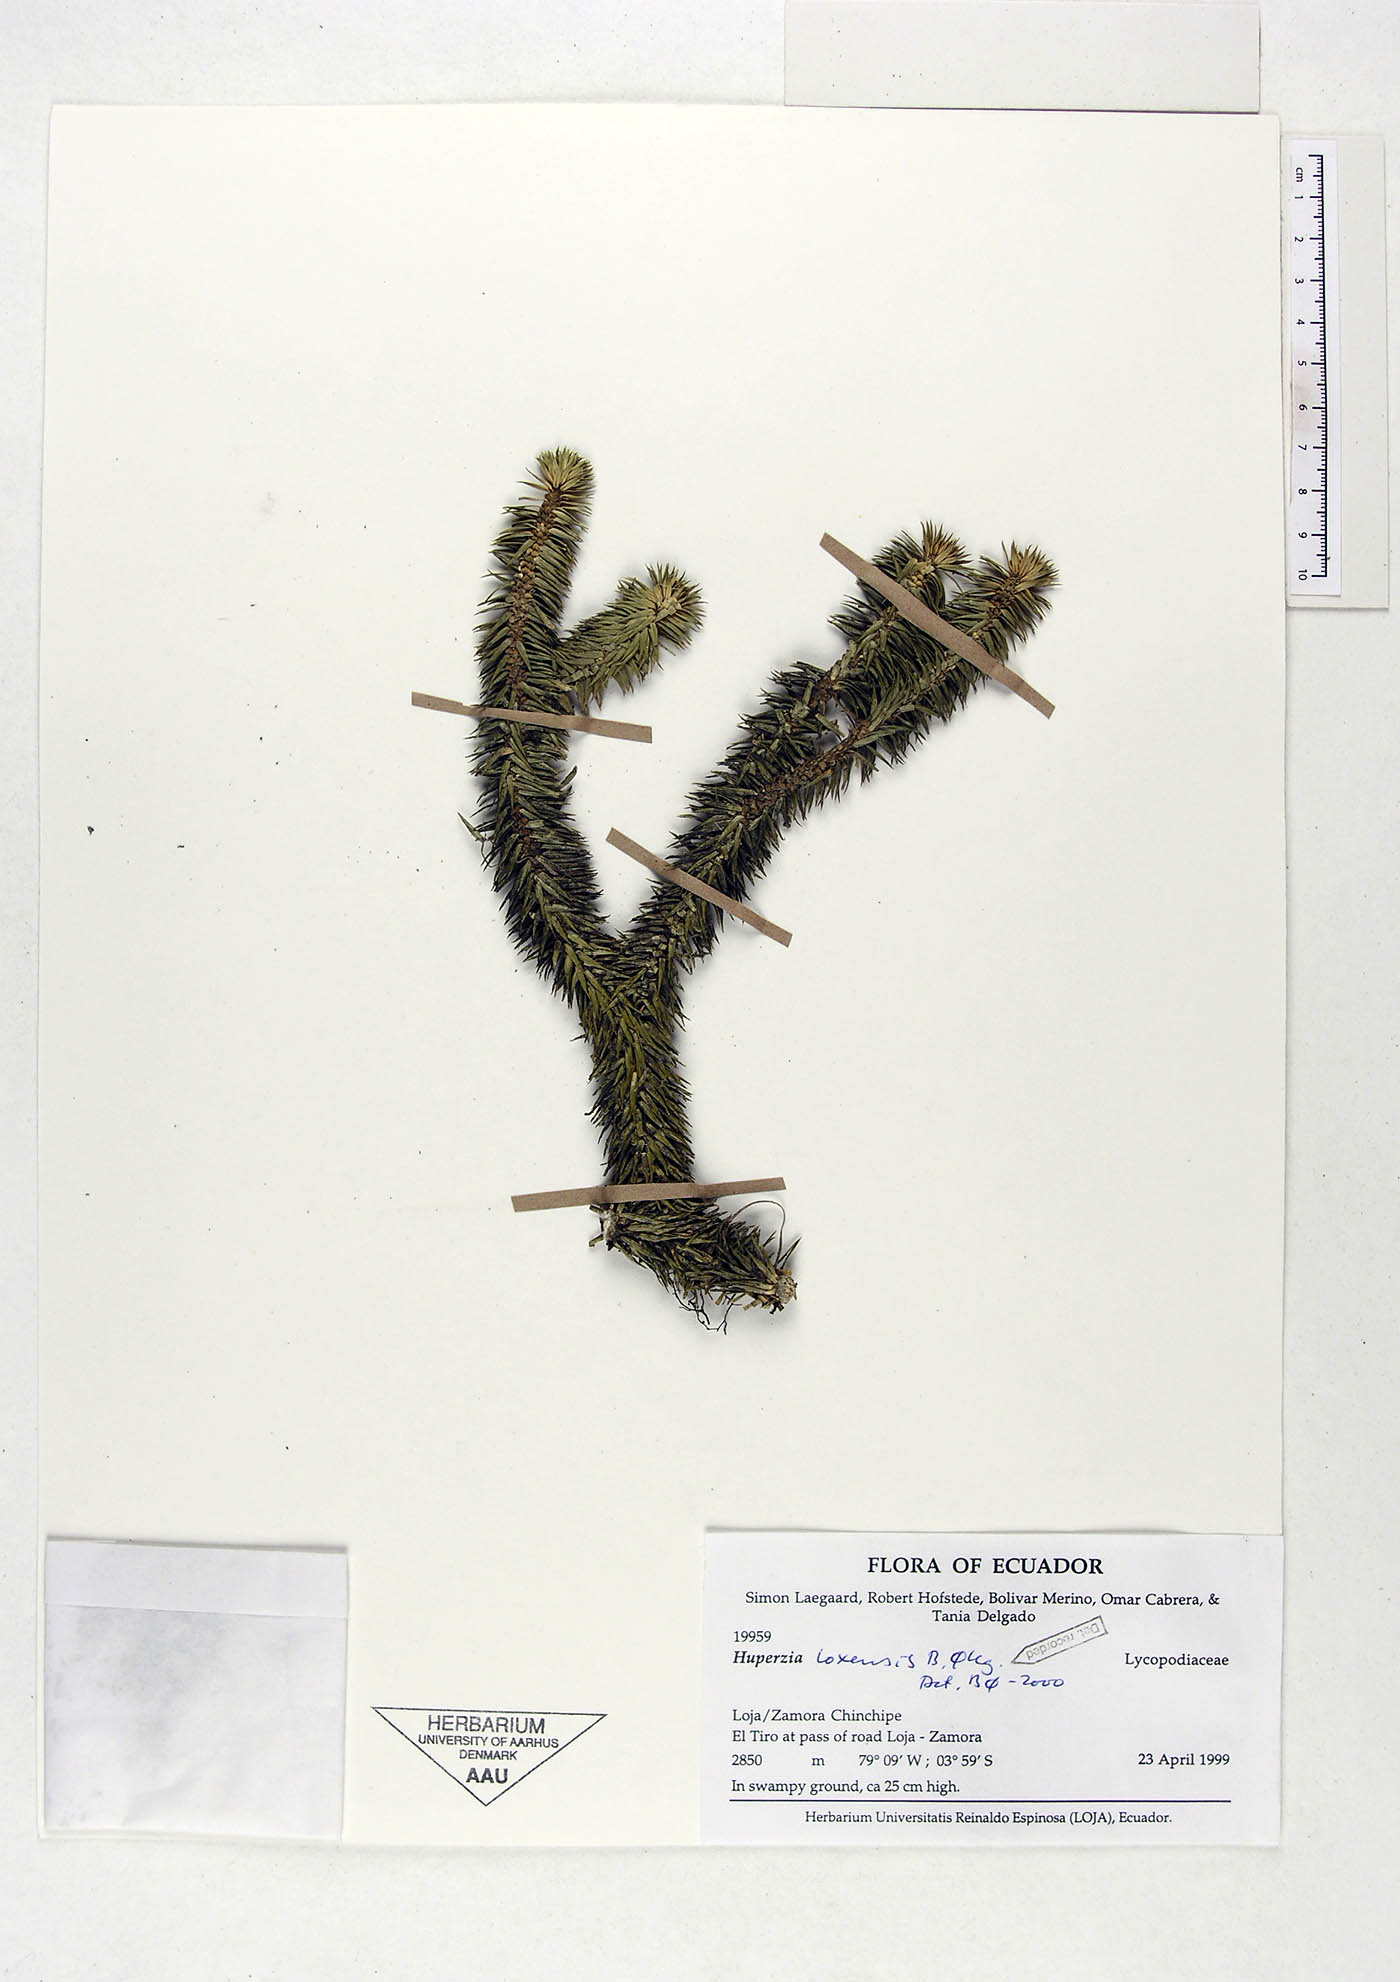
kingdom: Plantae
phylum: Tracheophyta
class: Lycopodiopsida
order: Lycopodiales
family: Lycopodiaceae
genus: Phlegmariurus
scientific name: Phlegmariurus loxensis
